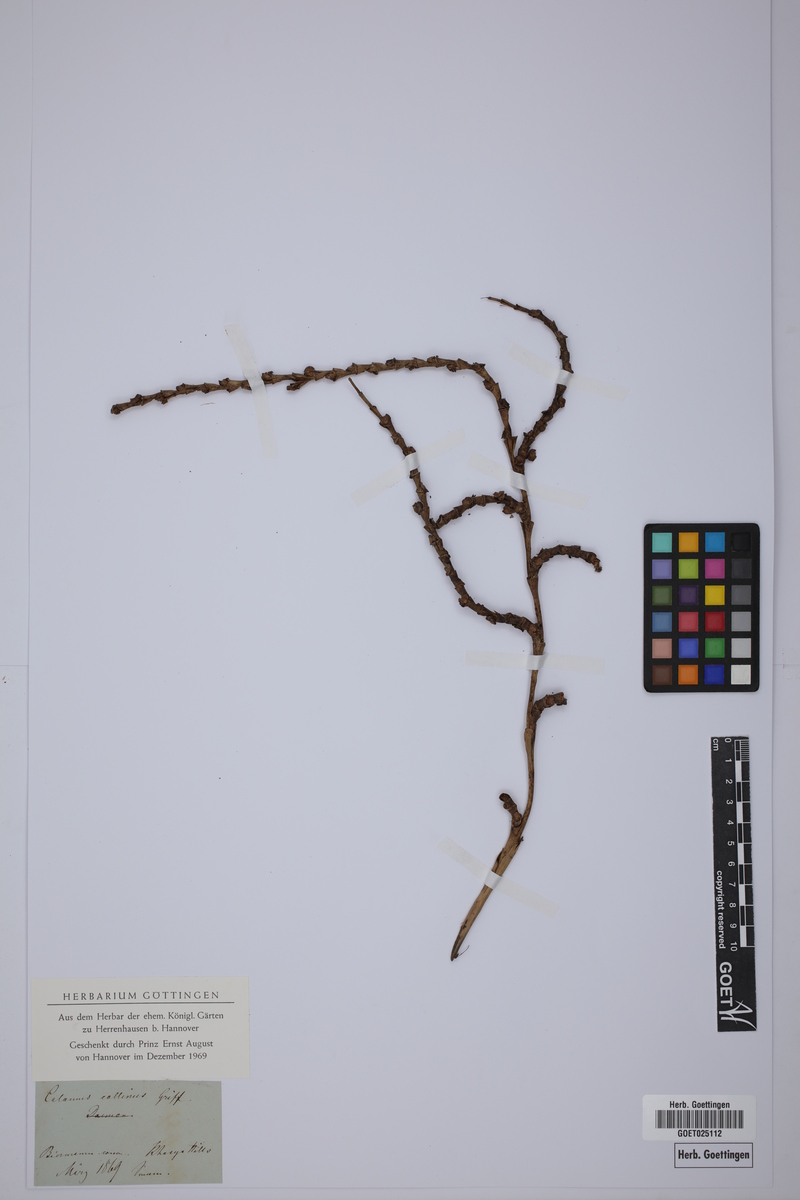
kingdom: Plantae
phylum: Tracheophyta
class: Liliopsida
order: Arecales
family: Arecaceae
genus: Calamus
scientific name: Calamus erectus
